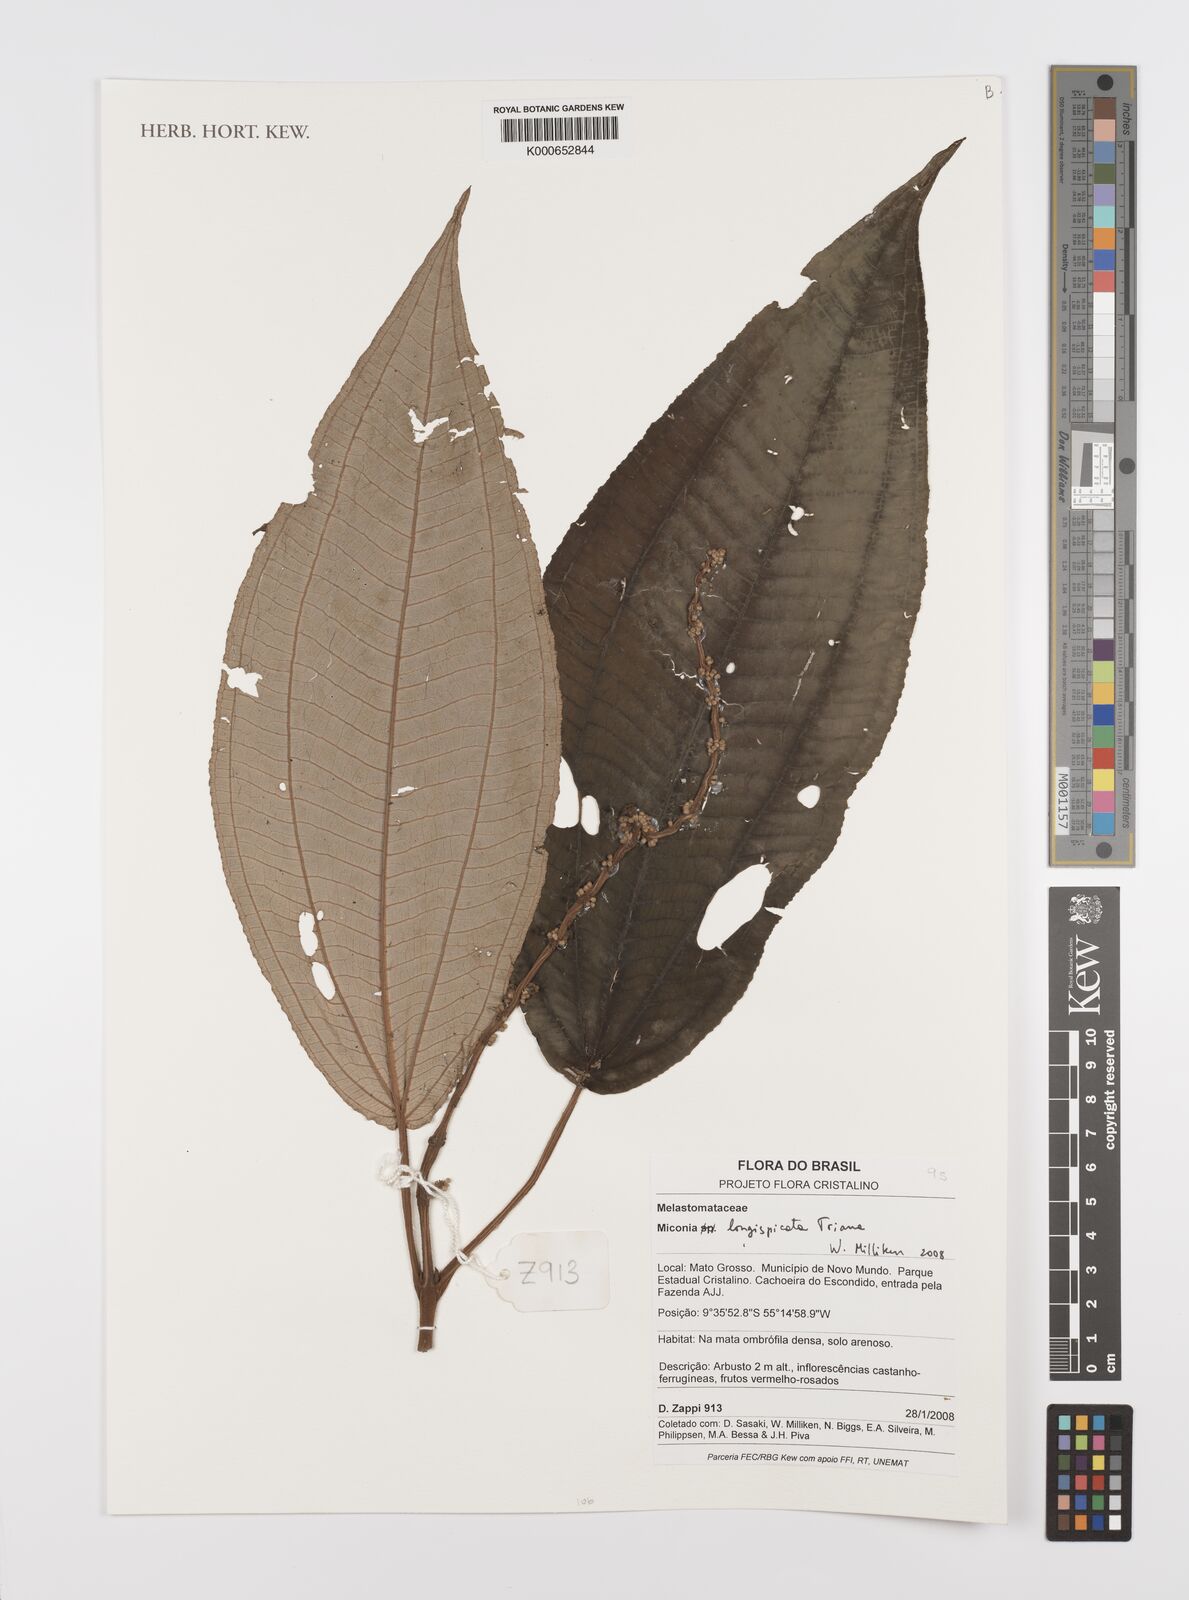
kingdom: Plantae
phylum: Tracheophyta
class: Magnoliopsida
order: Myrtales
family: Melastomataceae
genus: Miconia
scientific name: Miconia longispicata
